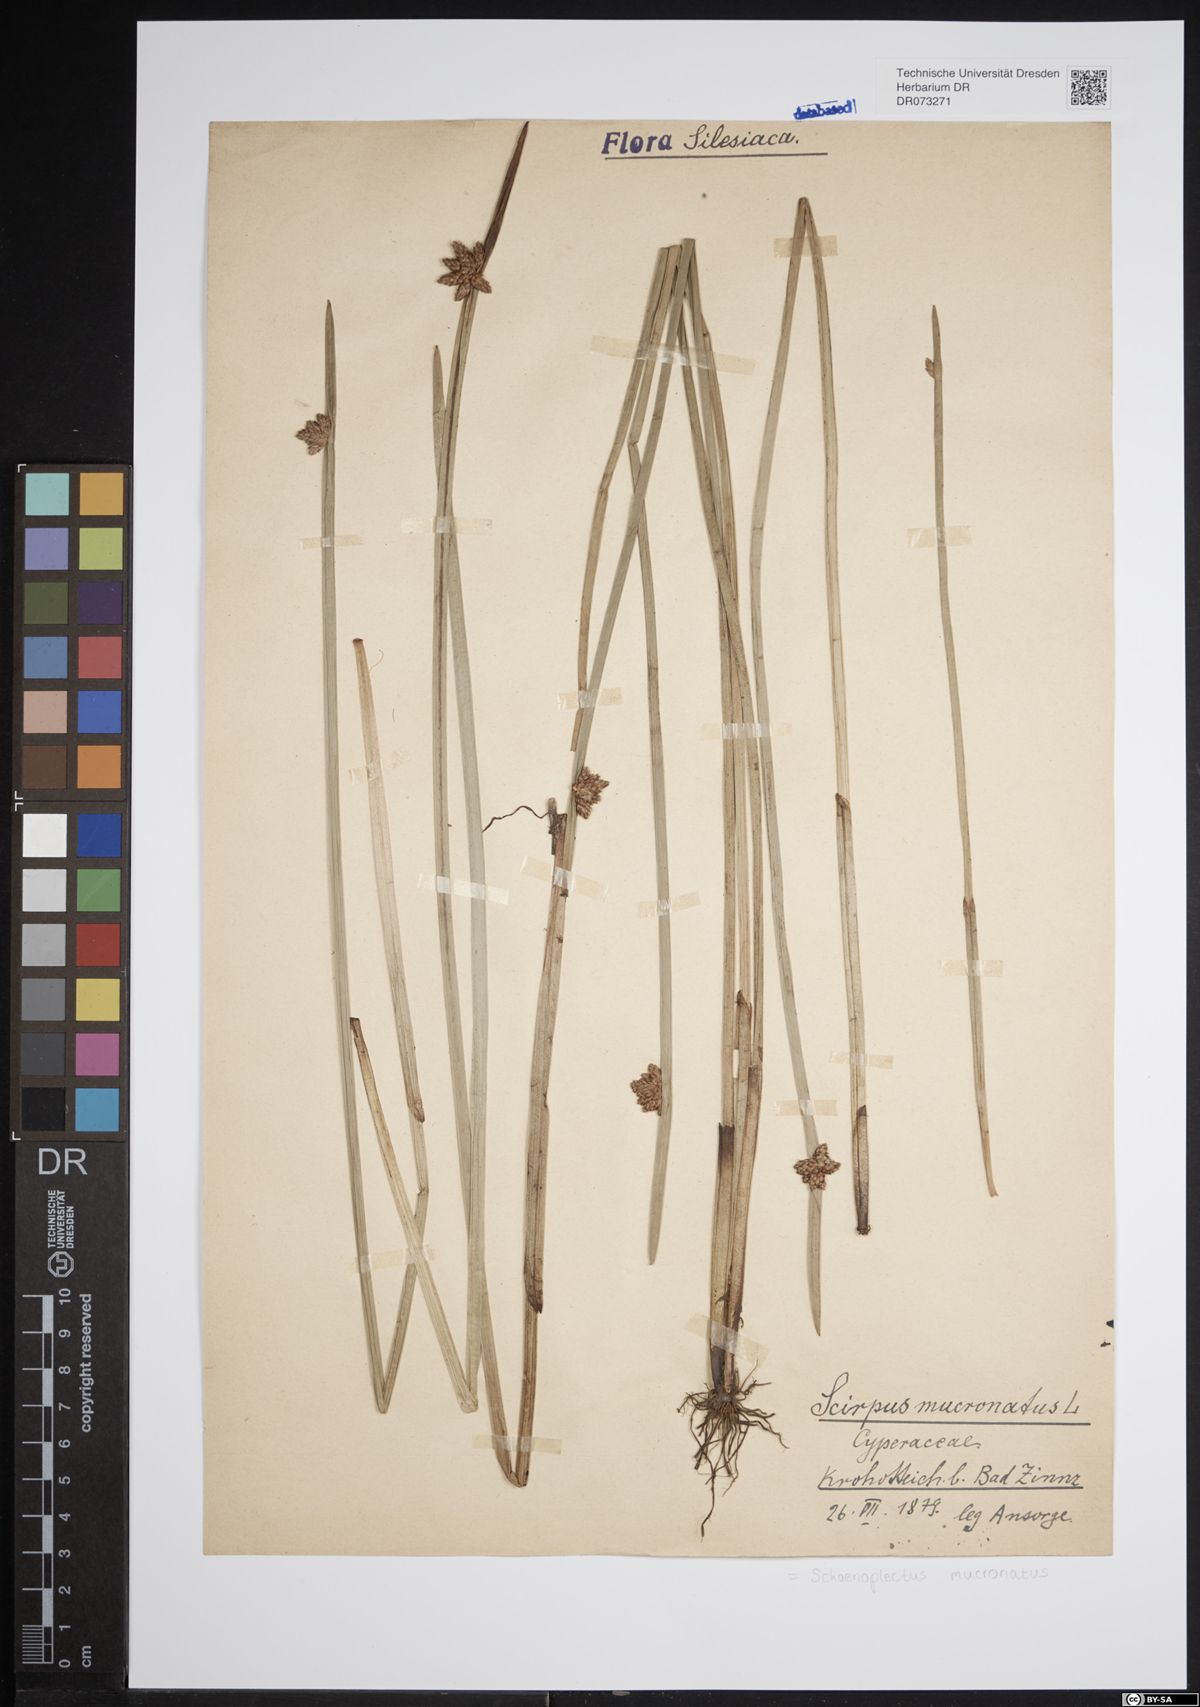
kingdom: Plantae
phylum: Tracheophyta
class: Liliopsida
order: Poales
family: Cyperaceae
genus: Schoenoplectiella
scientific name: Schoenoplectiella mucronata
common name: Bog bulrush
